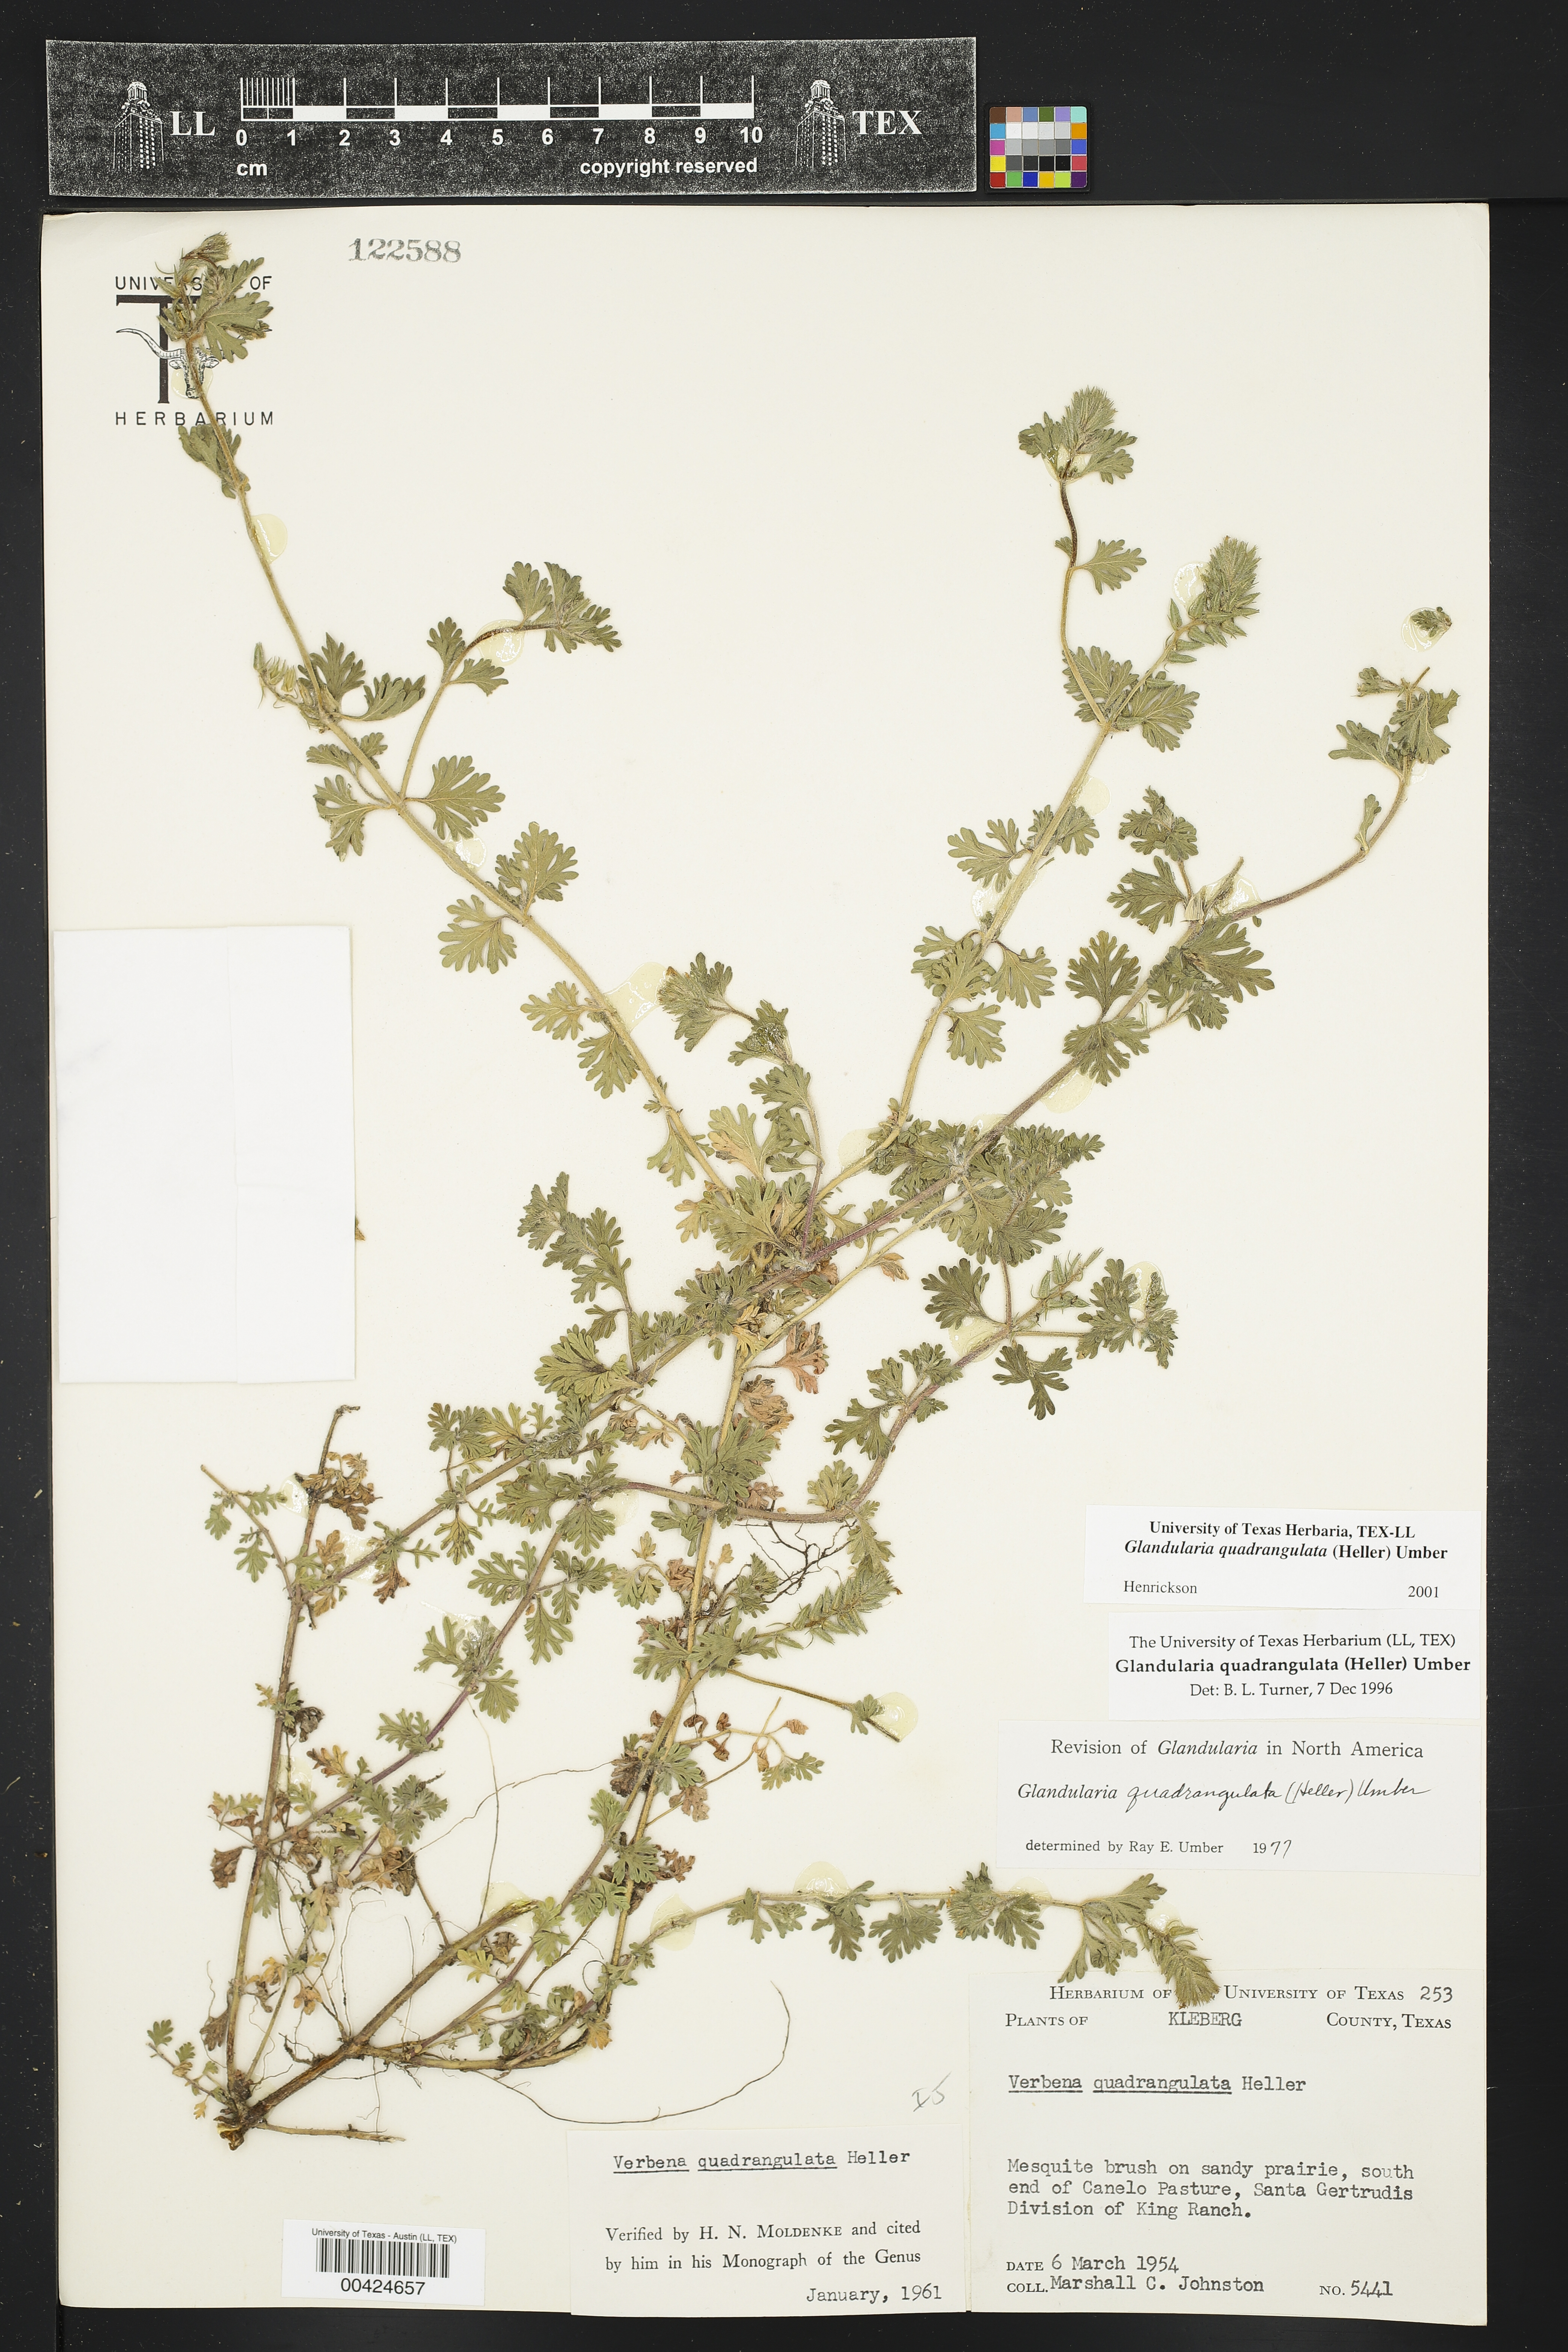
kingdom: Plantae
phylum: Tracheophyta
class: Magnoliopsida
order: Lamiales
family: Verbenaceae
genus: Verbena
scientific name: Verbena quadrangulata
